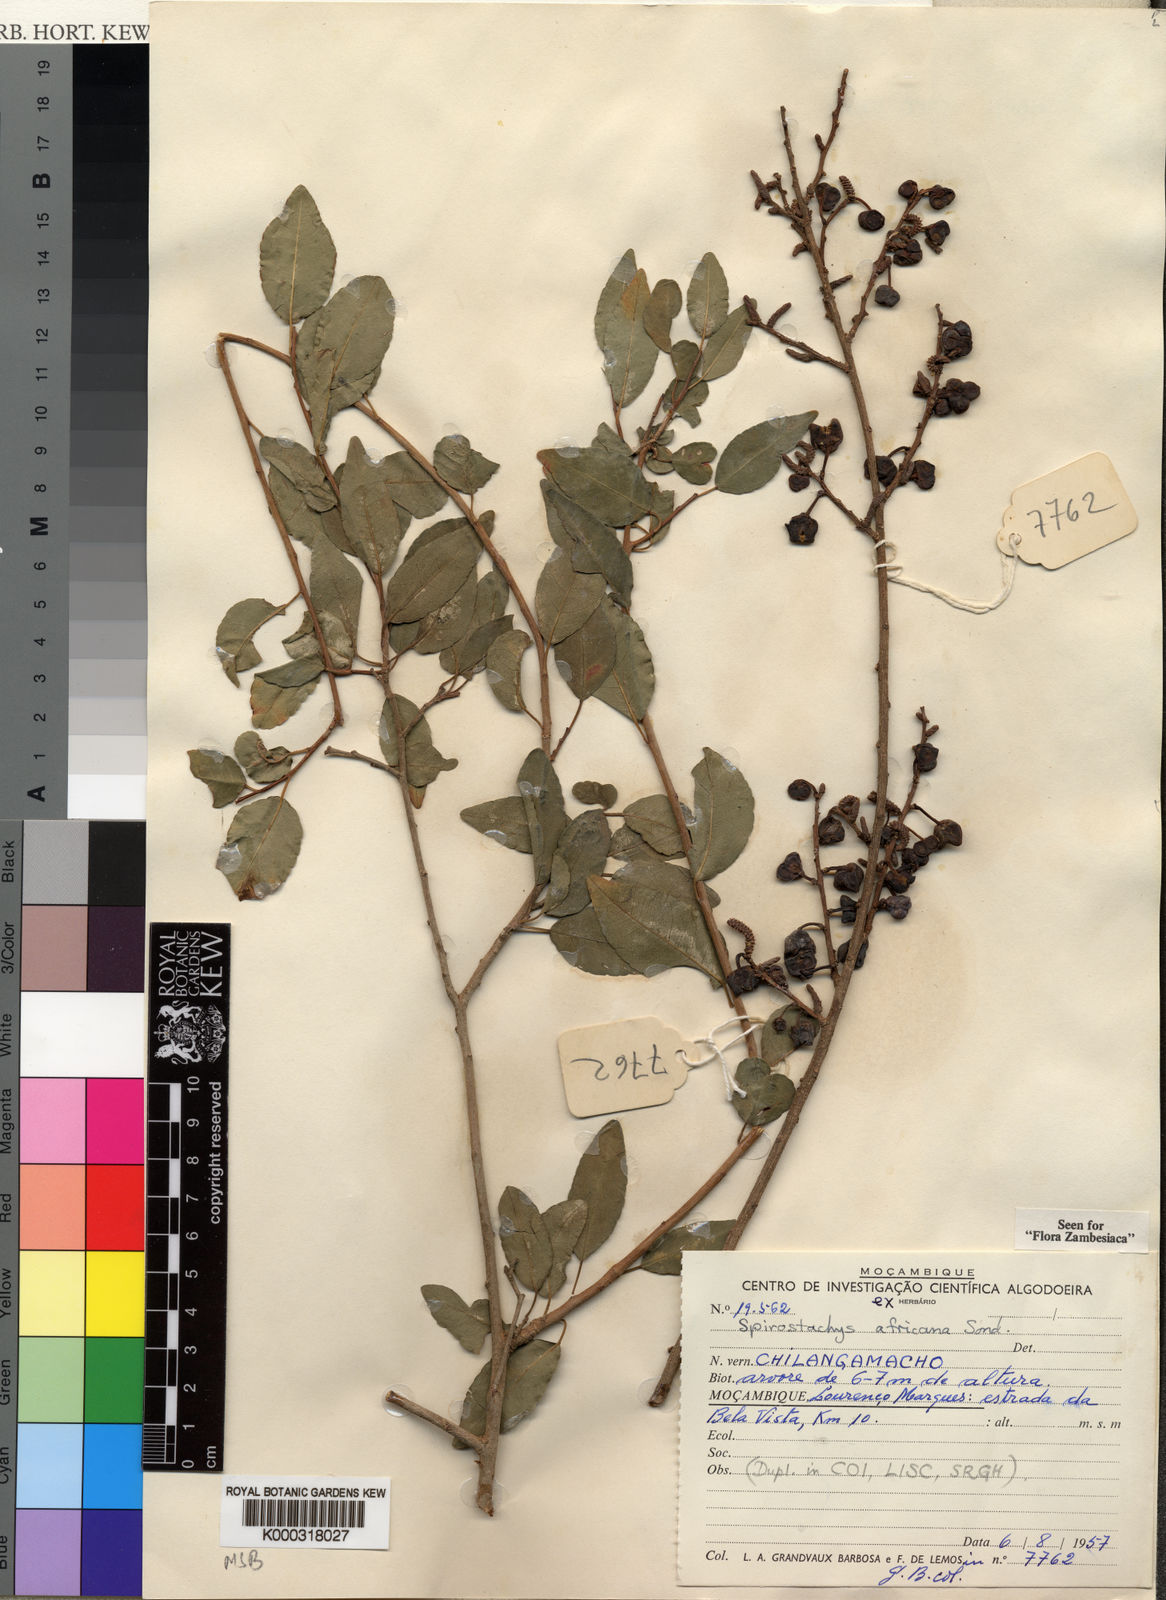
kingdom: Plantae
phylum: Tracheophyta
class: Magnoliopsida
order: Malpighiales
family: Euphorbiaceae
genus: Spirostachys
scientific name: Spirostachys africana
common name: Tamboti
